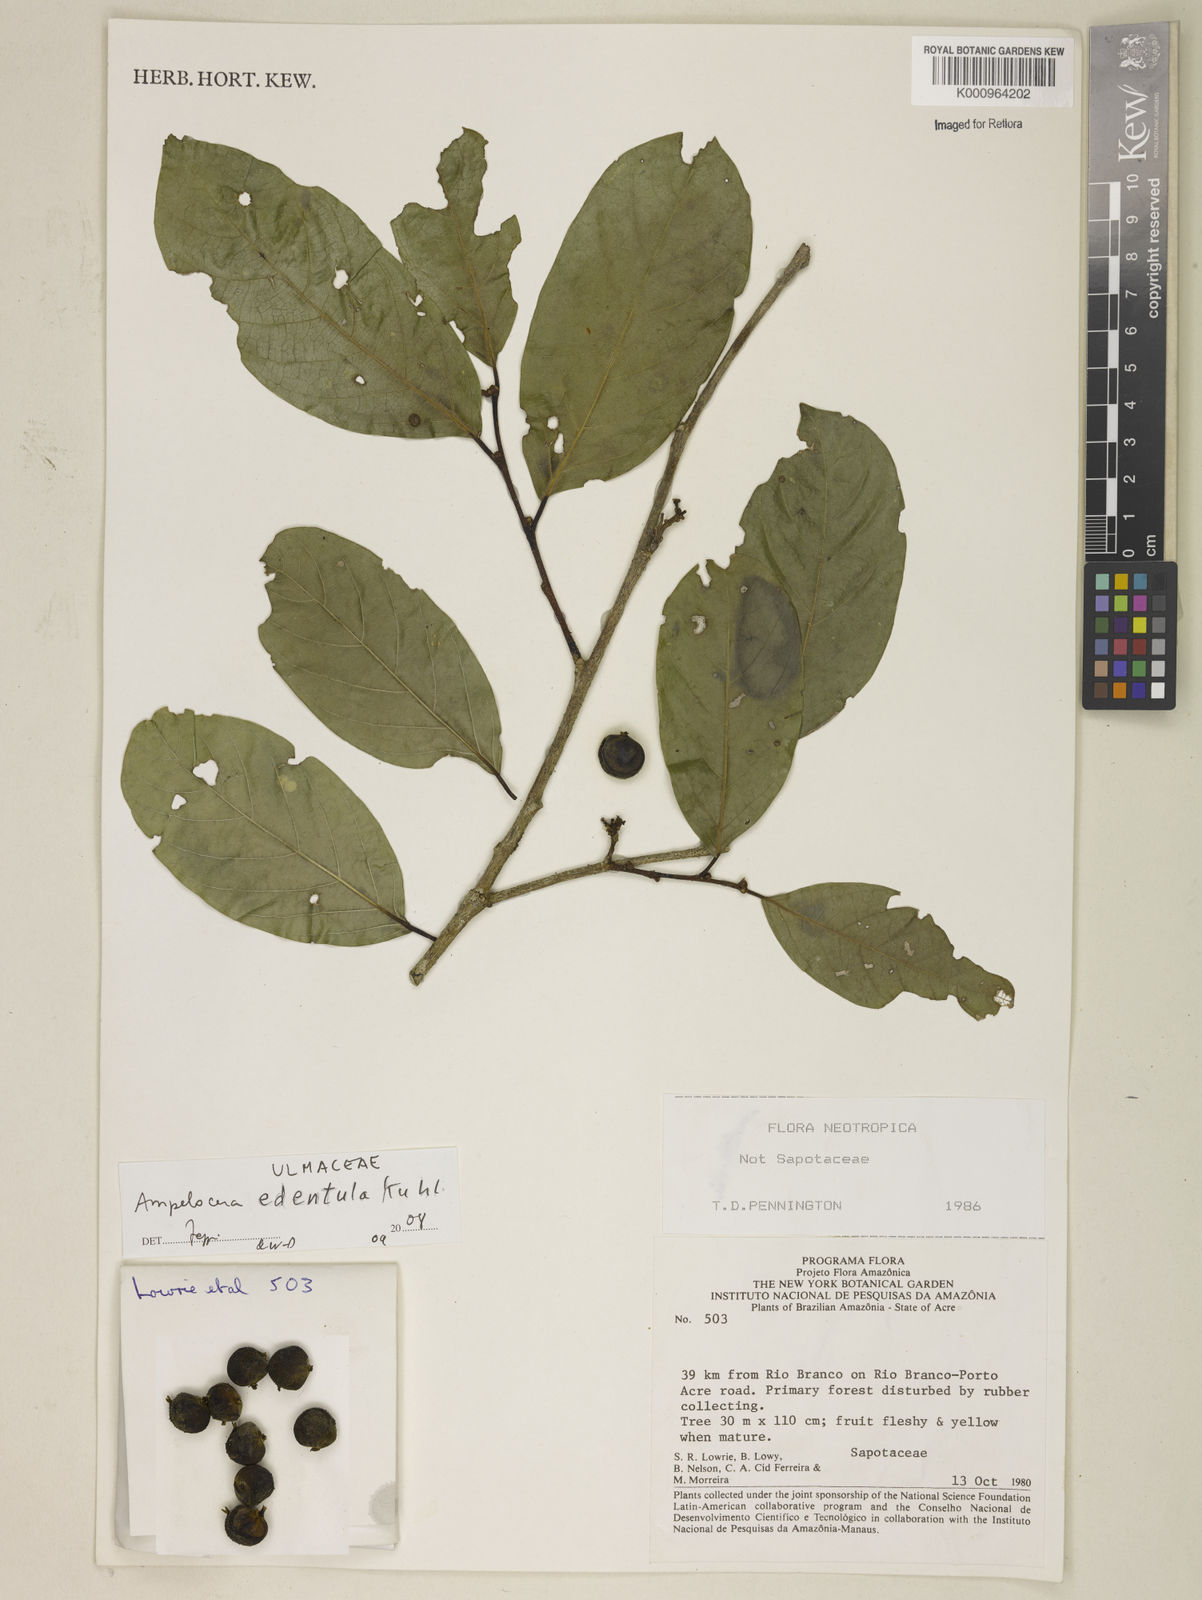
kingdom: Plantae
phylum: Tracheophyta
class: Magnoliopsida
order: Rosales
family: Cannabaceae
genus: Ampelocera
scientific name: Ampelocera edentula
